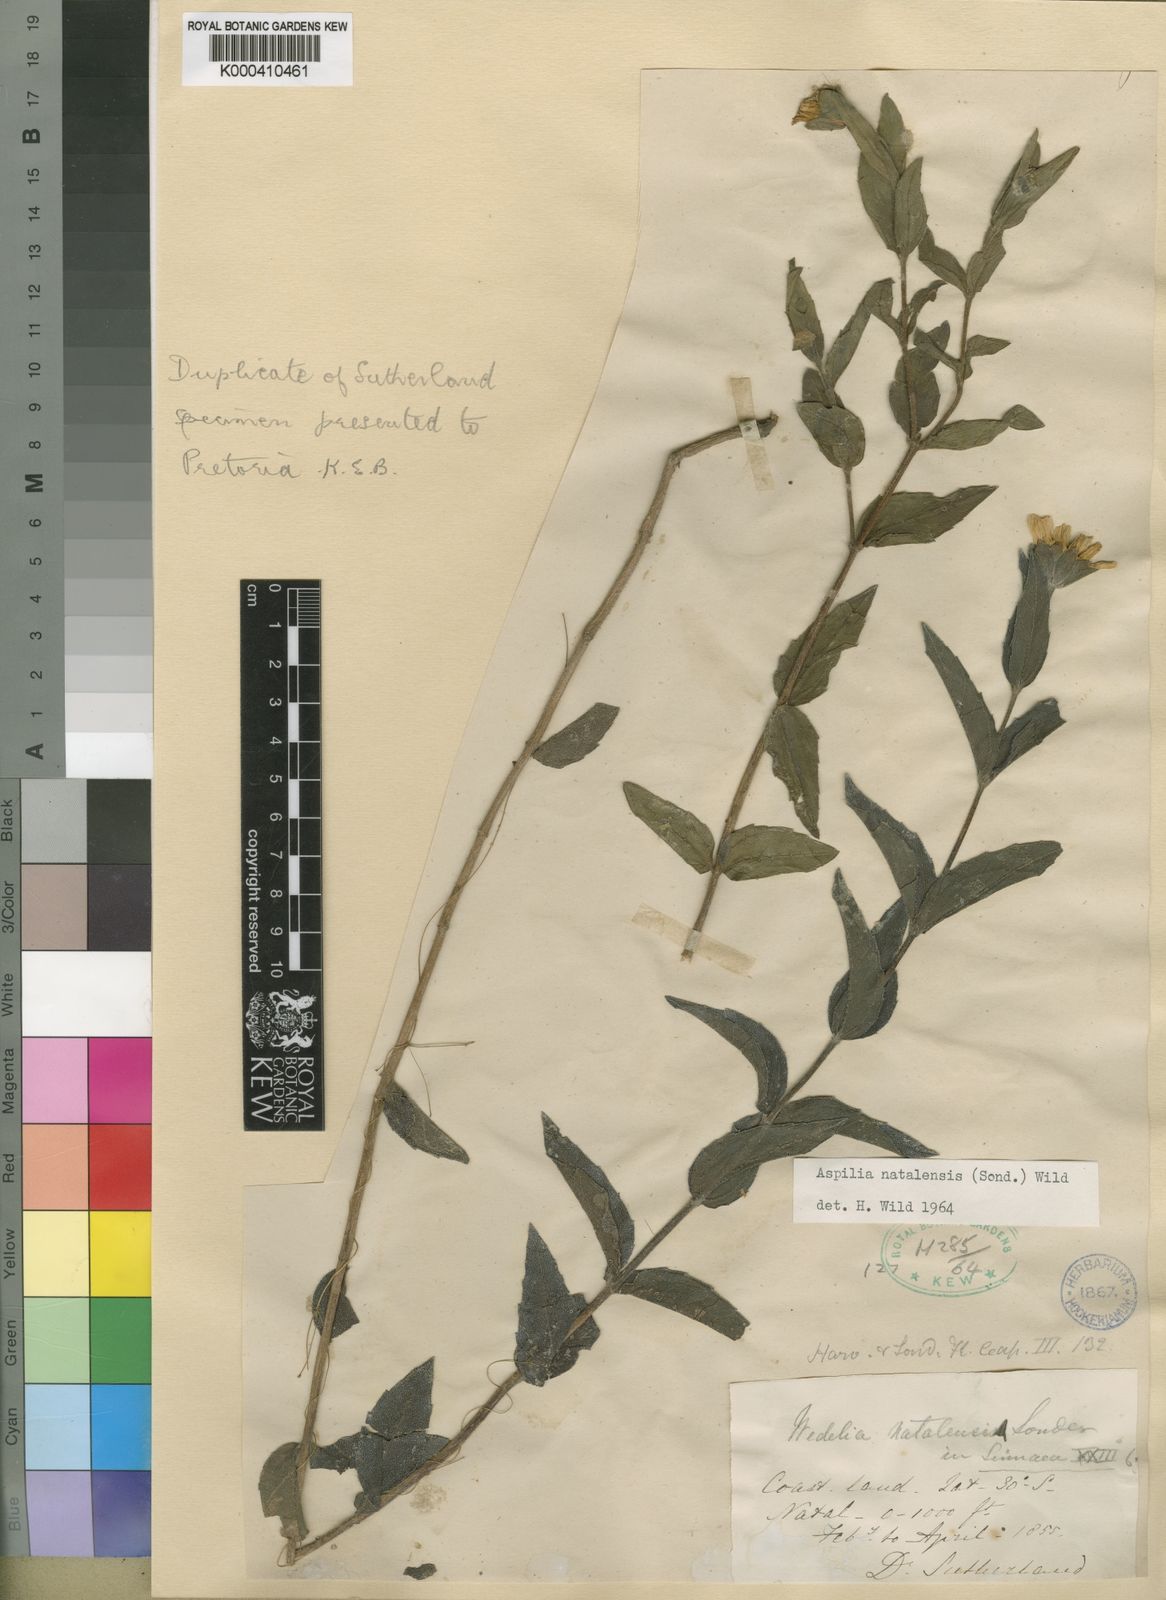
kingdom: Plantae
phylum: Tracheophyta
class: Magnoliopsida
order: Asterales
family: Asteraceae
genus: Aspilia
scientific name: Aspilia natalensis
